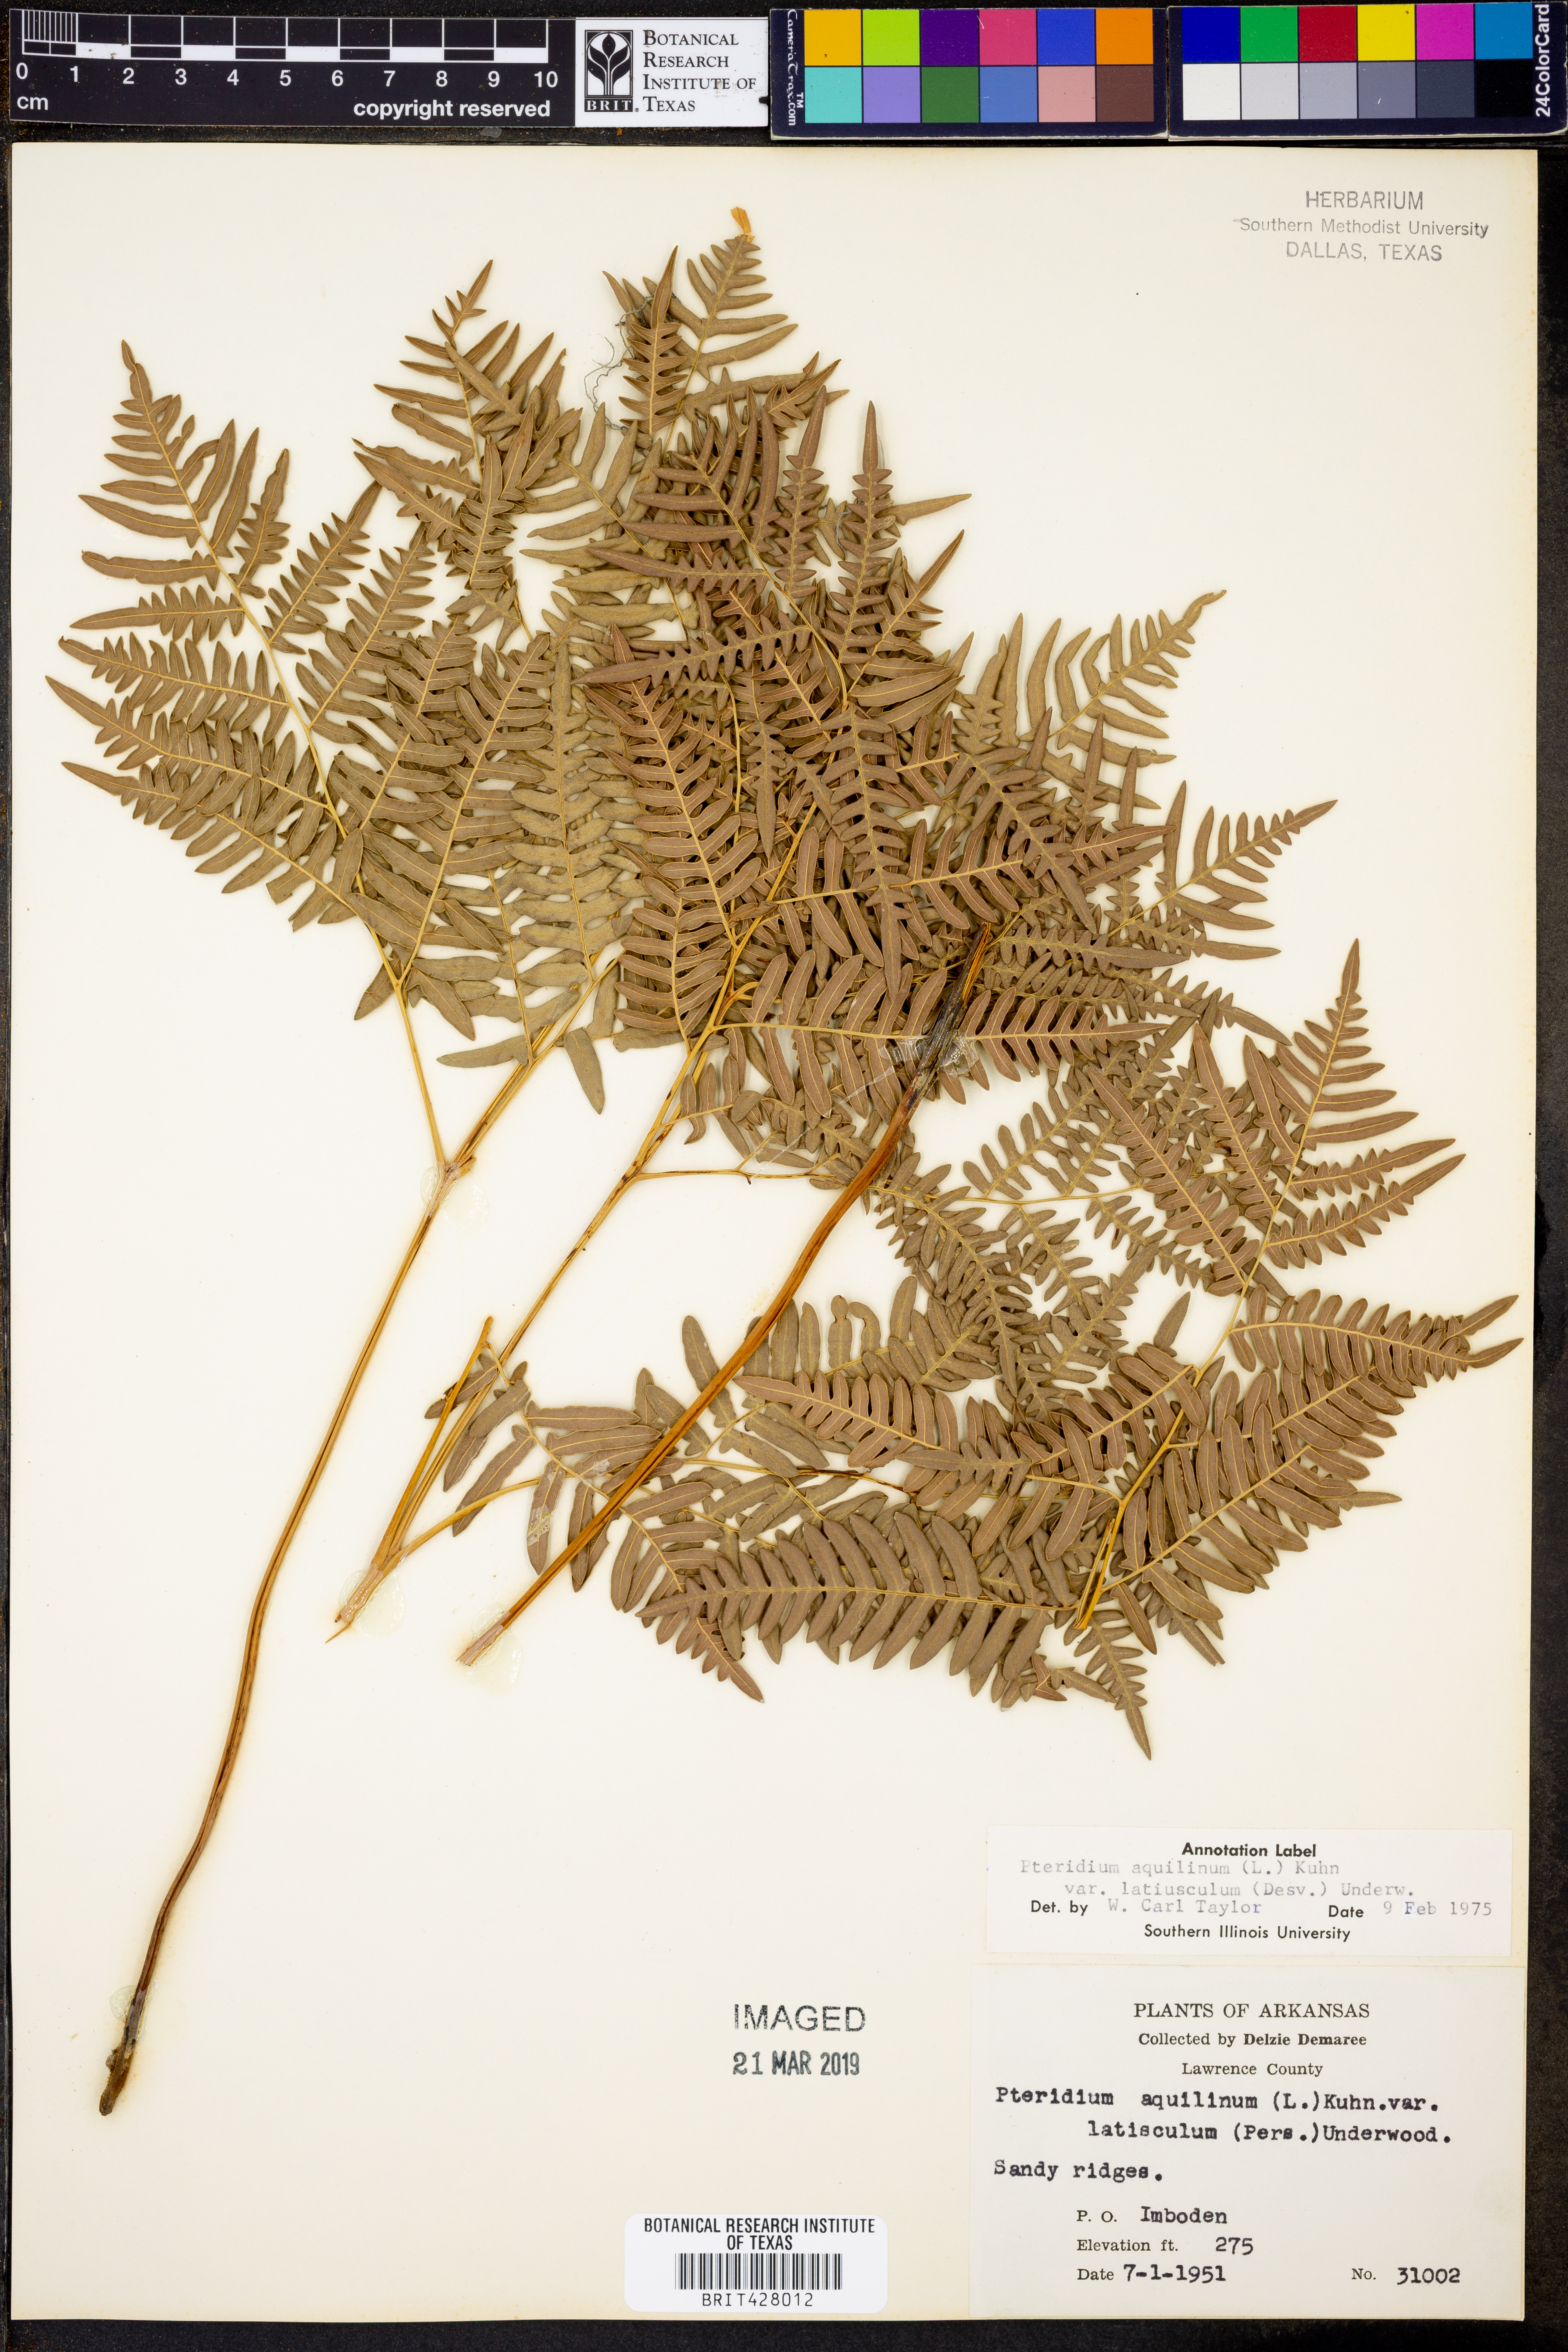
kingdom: Plantae
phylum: Tracheophyta
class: Polypodiopsida
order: Polypodiales
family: Dennstaedtiaceae
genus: Pteridium
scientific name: Pteridium aquilinum
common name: Bracken
